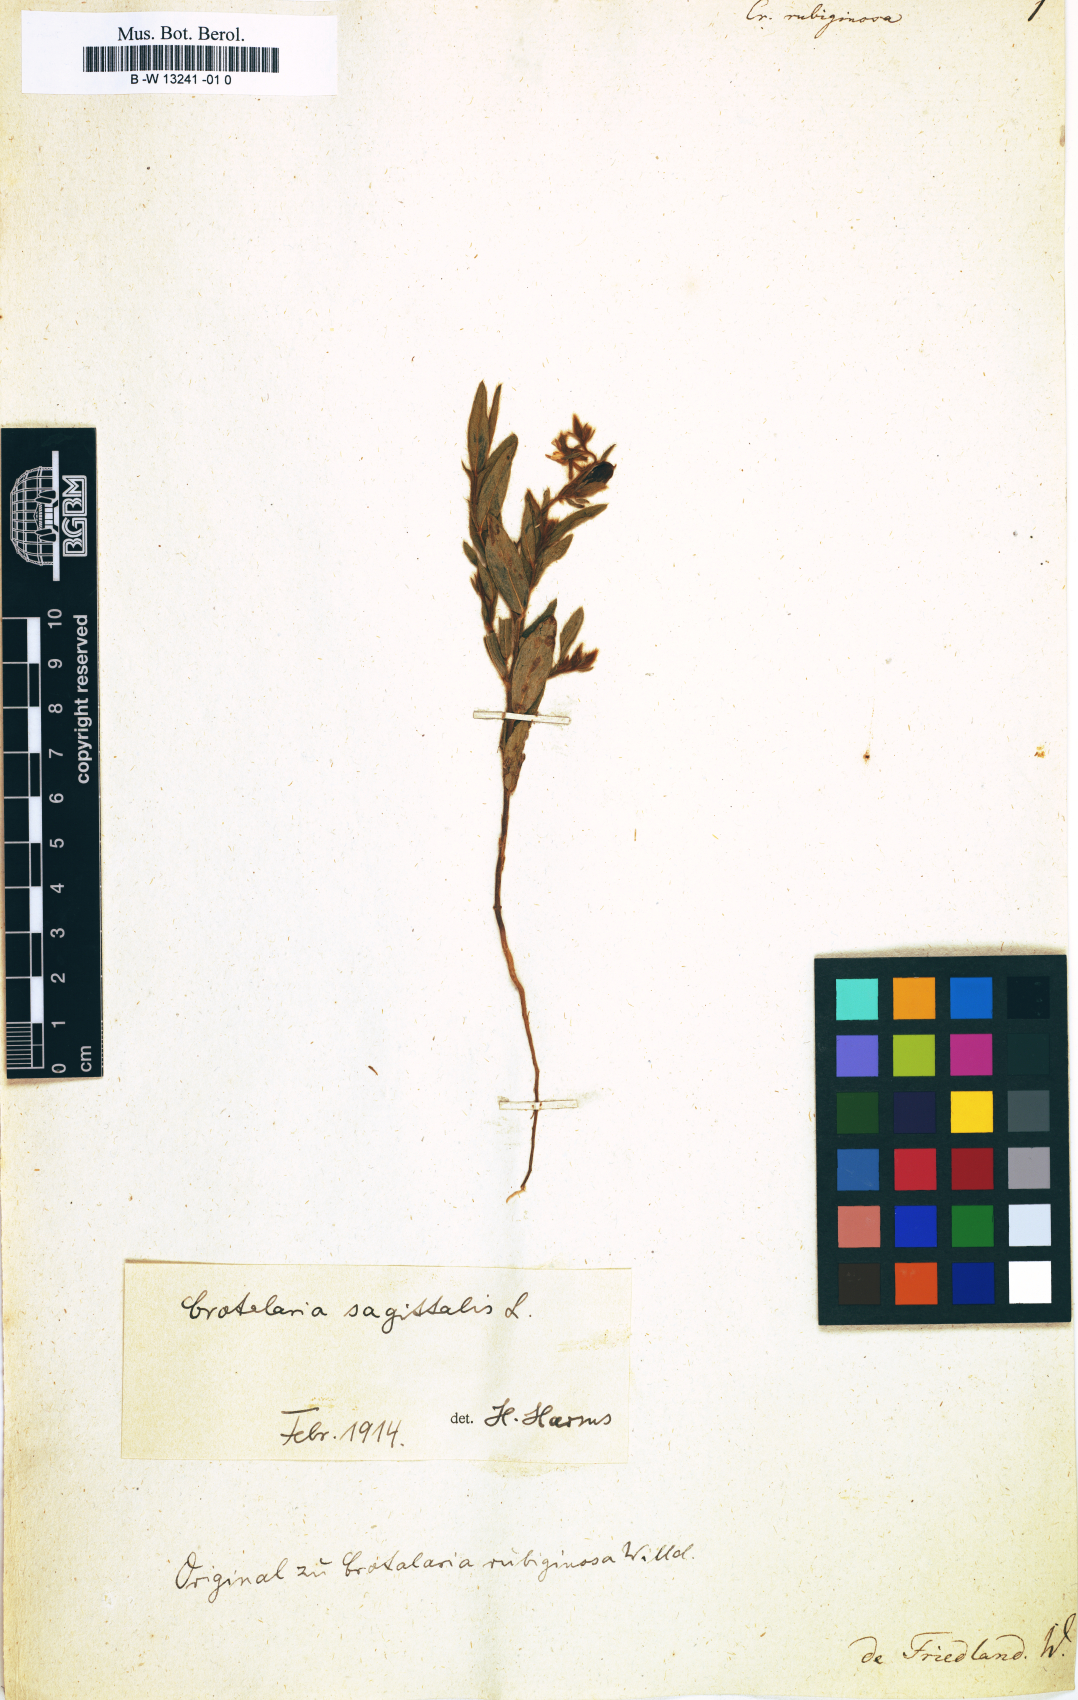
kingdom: Plantae
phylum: Tracheophyta
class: Magnoliopsida
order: Fabales
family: Fabaceae
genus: Crotalaria
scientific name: Crotalaria rubiginosa
